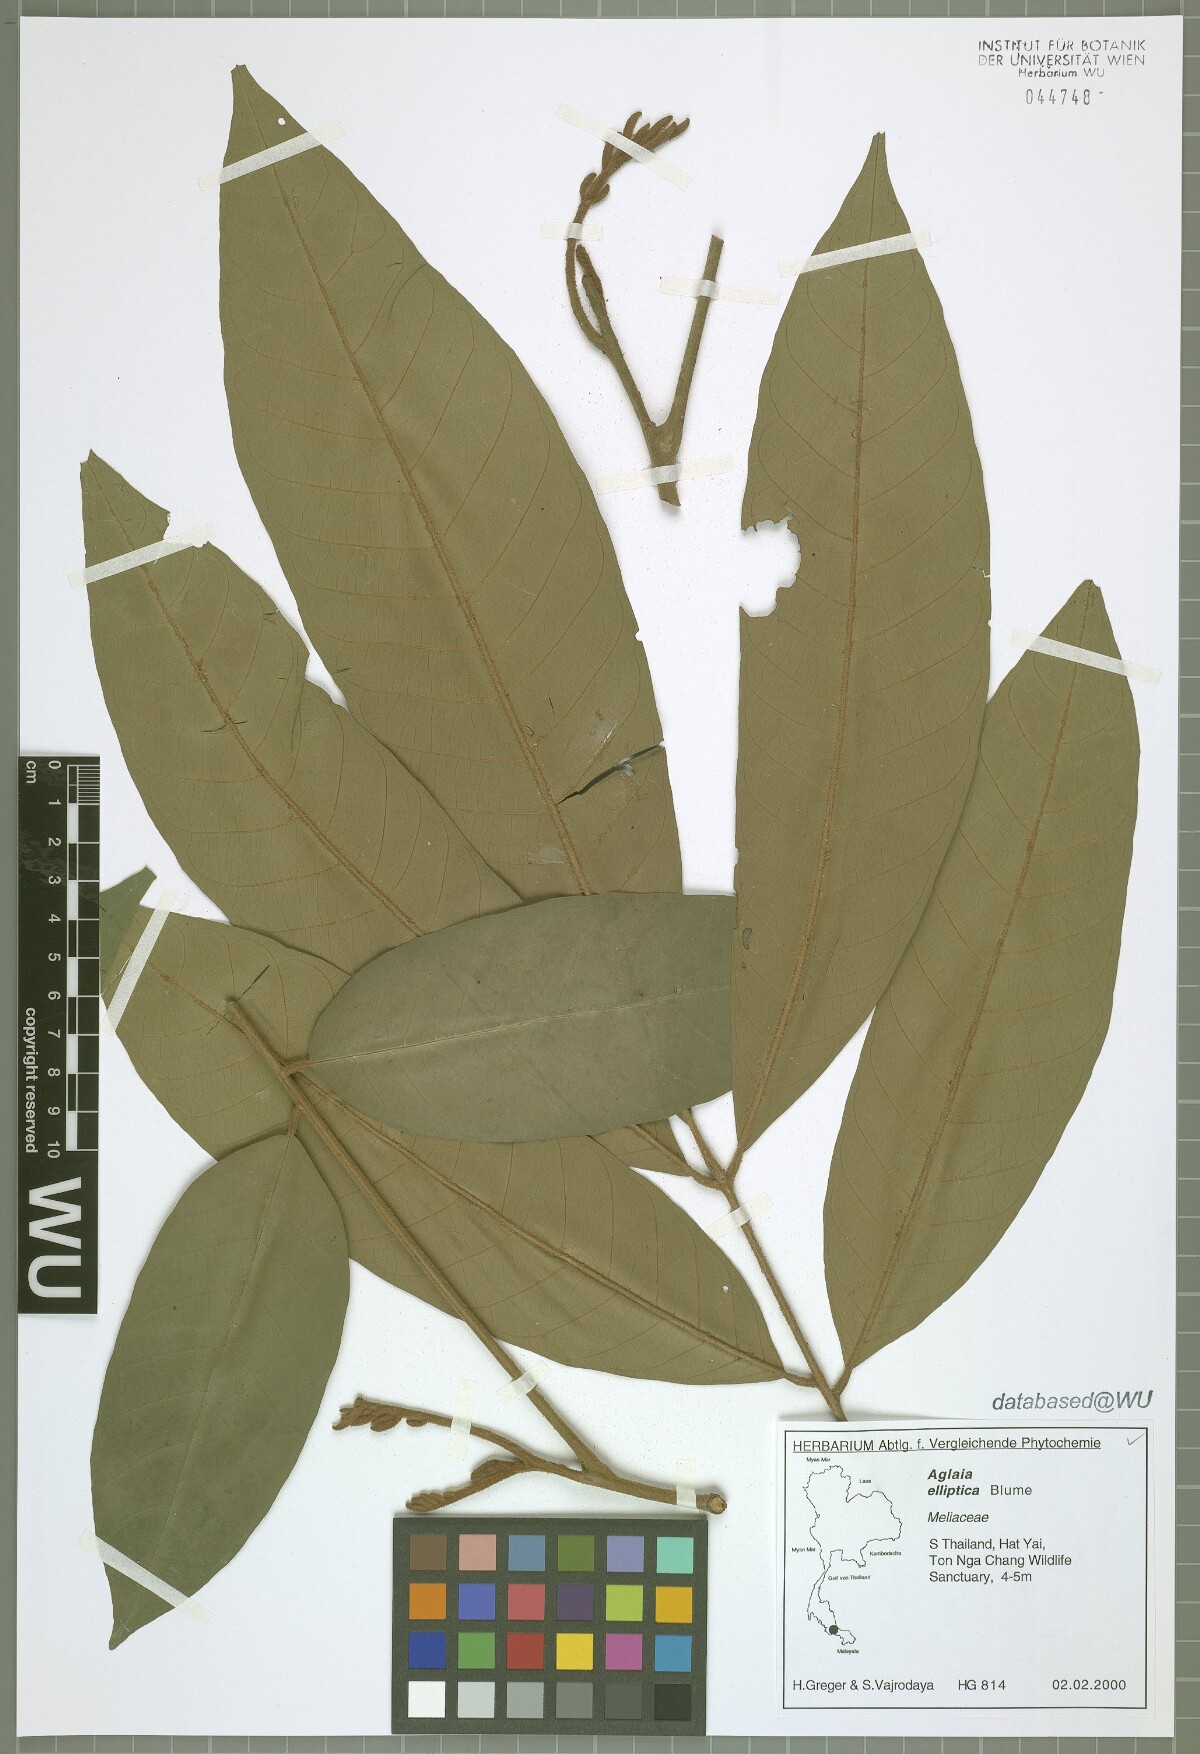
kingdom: Plantae
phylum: Tracheophyta
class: Magnoliopsida
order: Sapindales
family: Meliaceae
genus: Aglaia
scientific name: Aglaia elliptica
